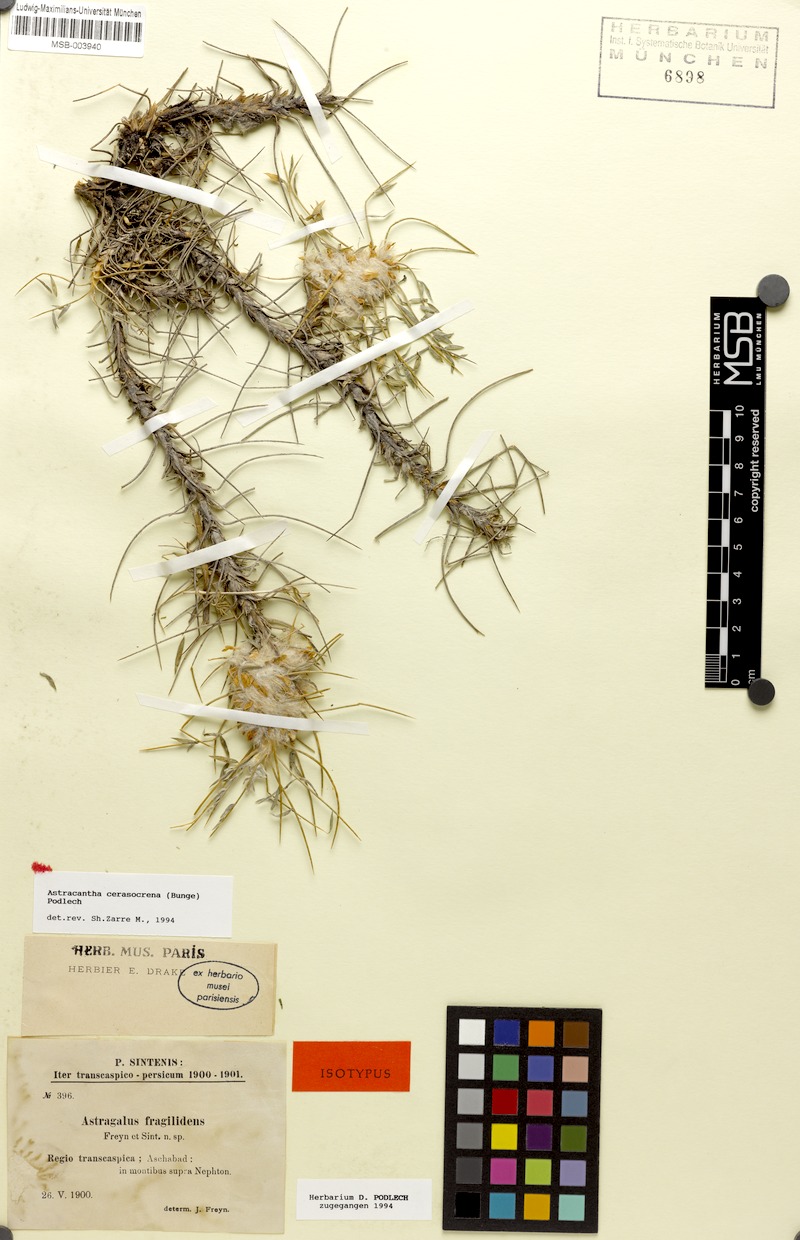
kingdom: Plantae
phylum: Tracheophyta
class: Magnoliopsida
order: Fabales
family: Fabaceae
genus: Astragalus
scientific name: Astragalus cerasocrenus
